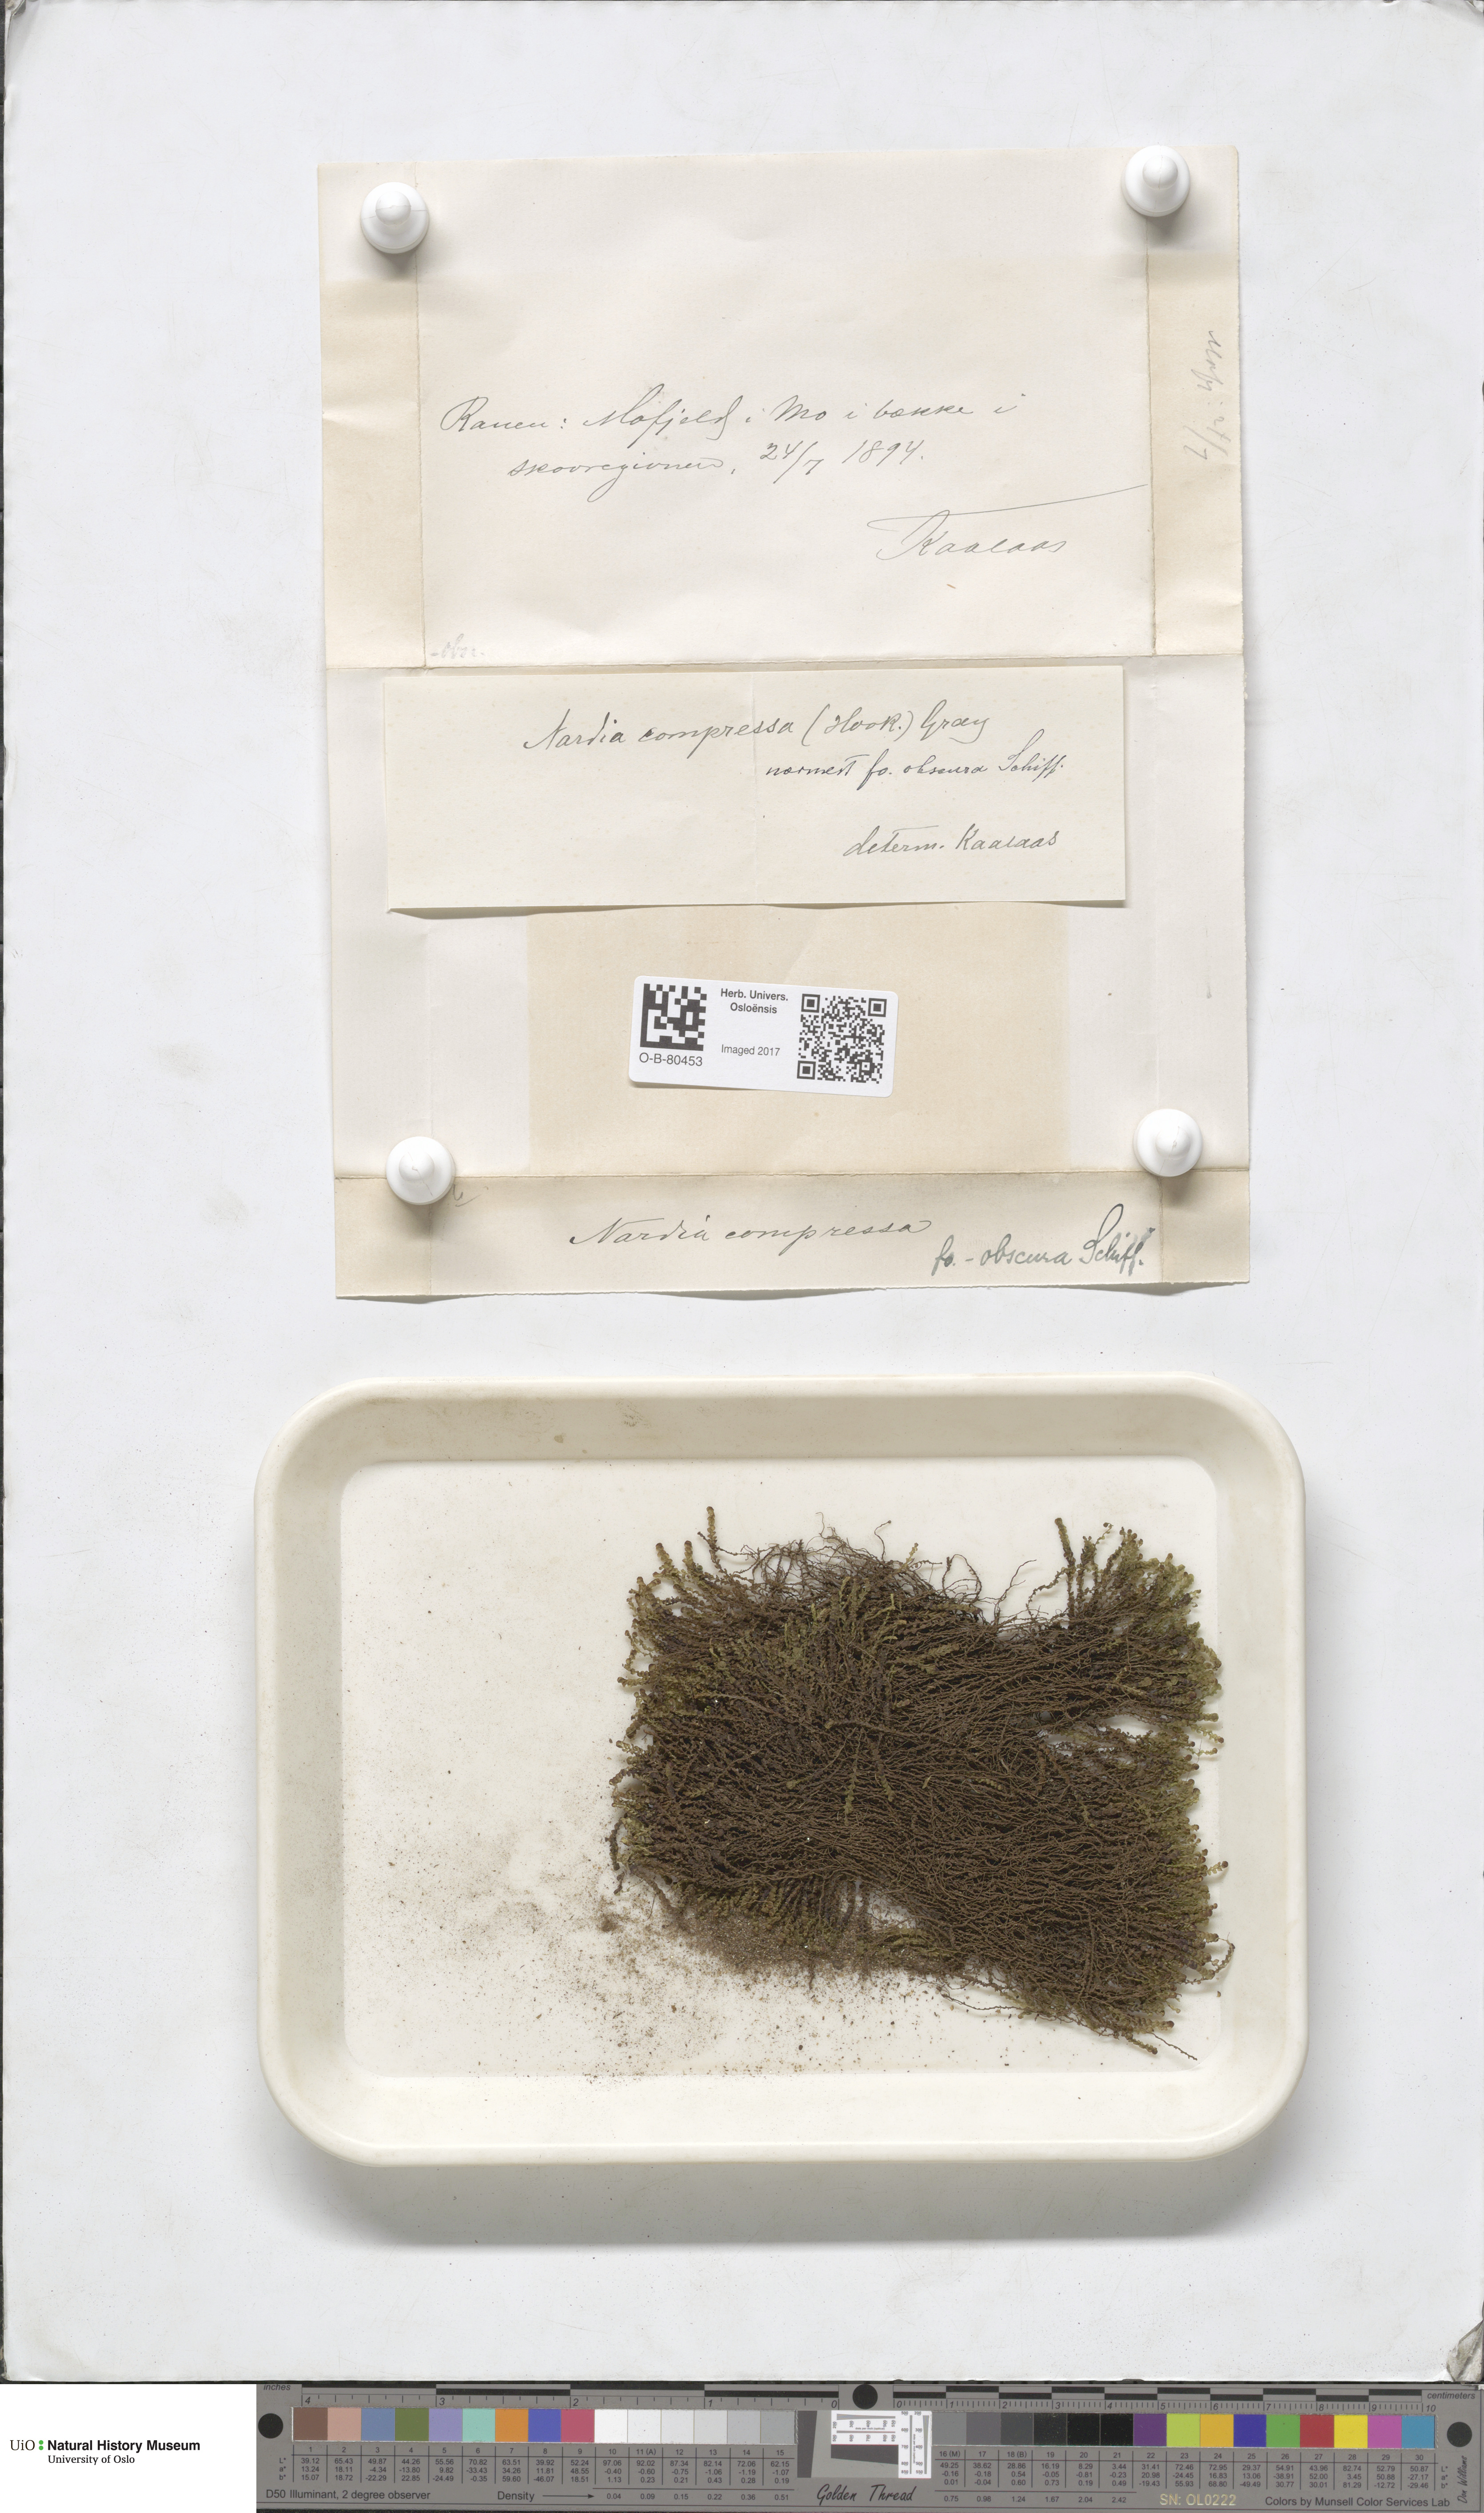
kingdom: Plantae
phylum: Marchantiophyta
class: Jungermanniopsida
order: Jungermanniales
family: Gymnomitriaceae
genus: Nardia
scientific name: Nardia compressa
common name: Compressed flapwort
